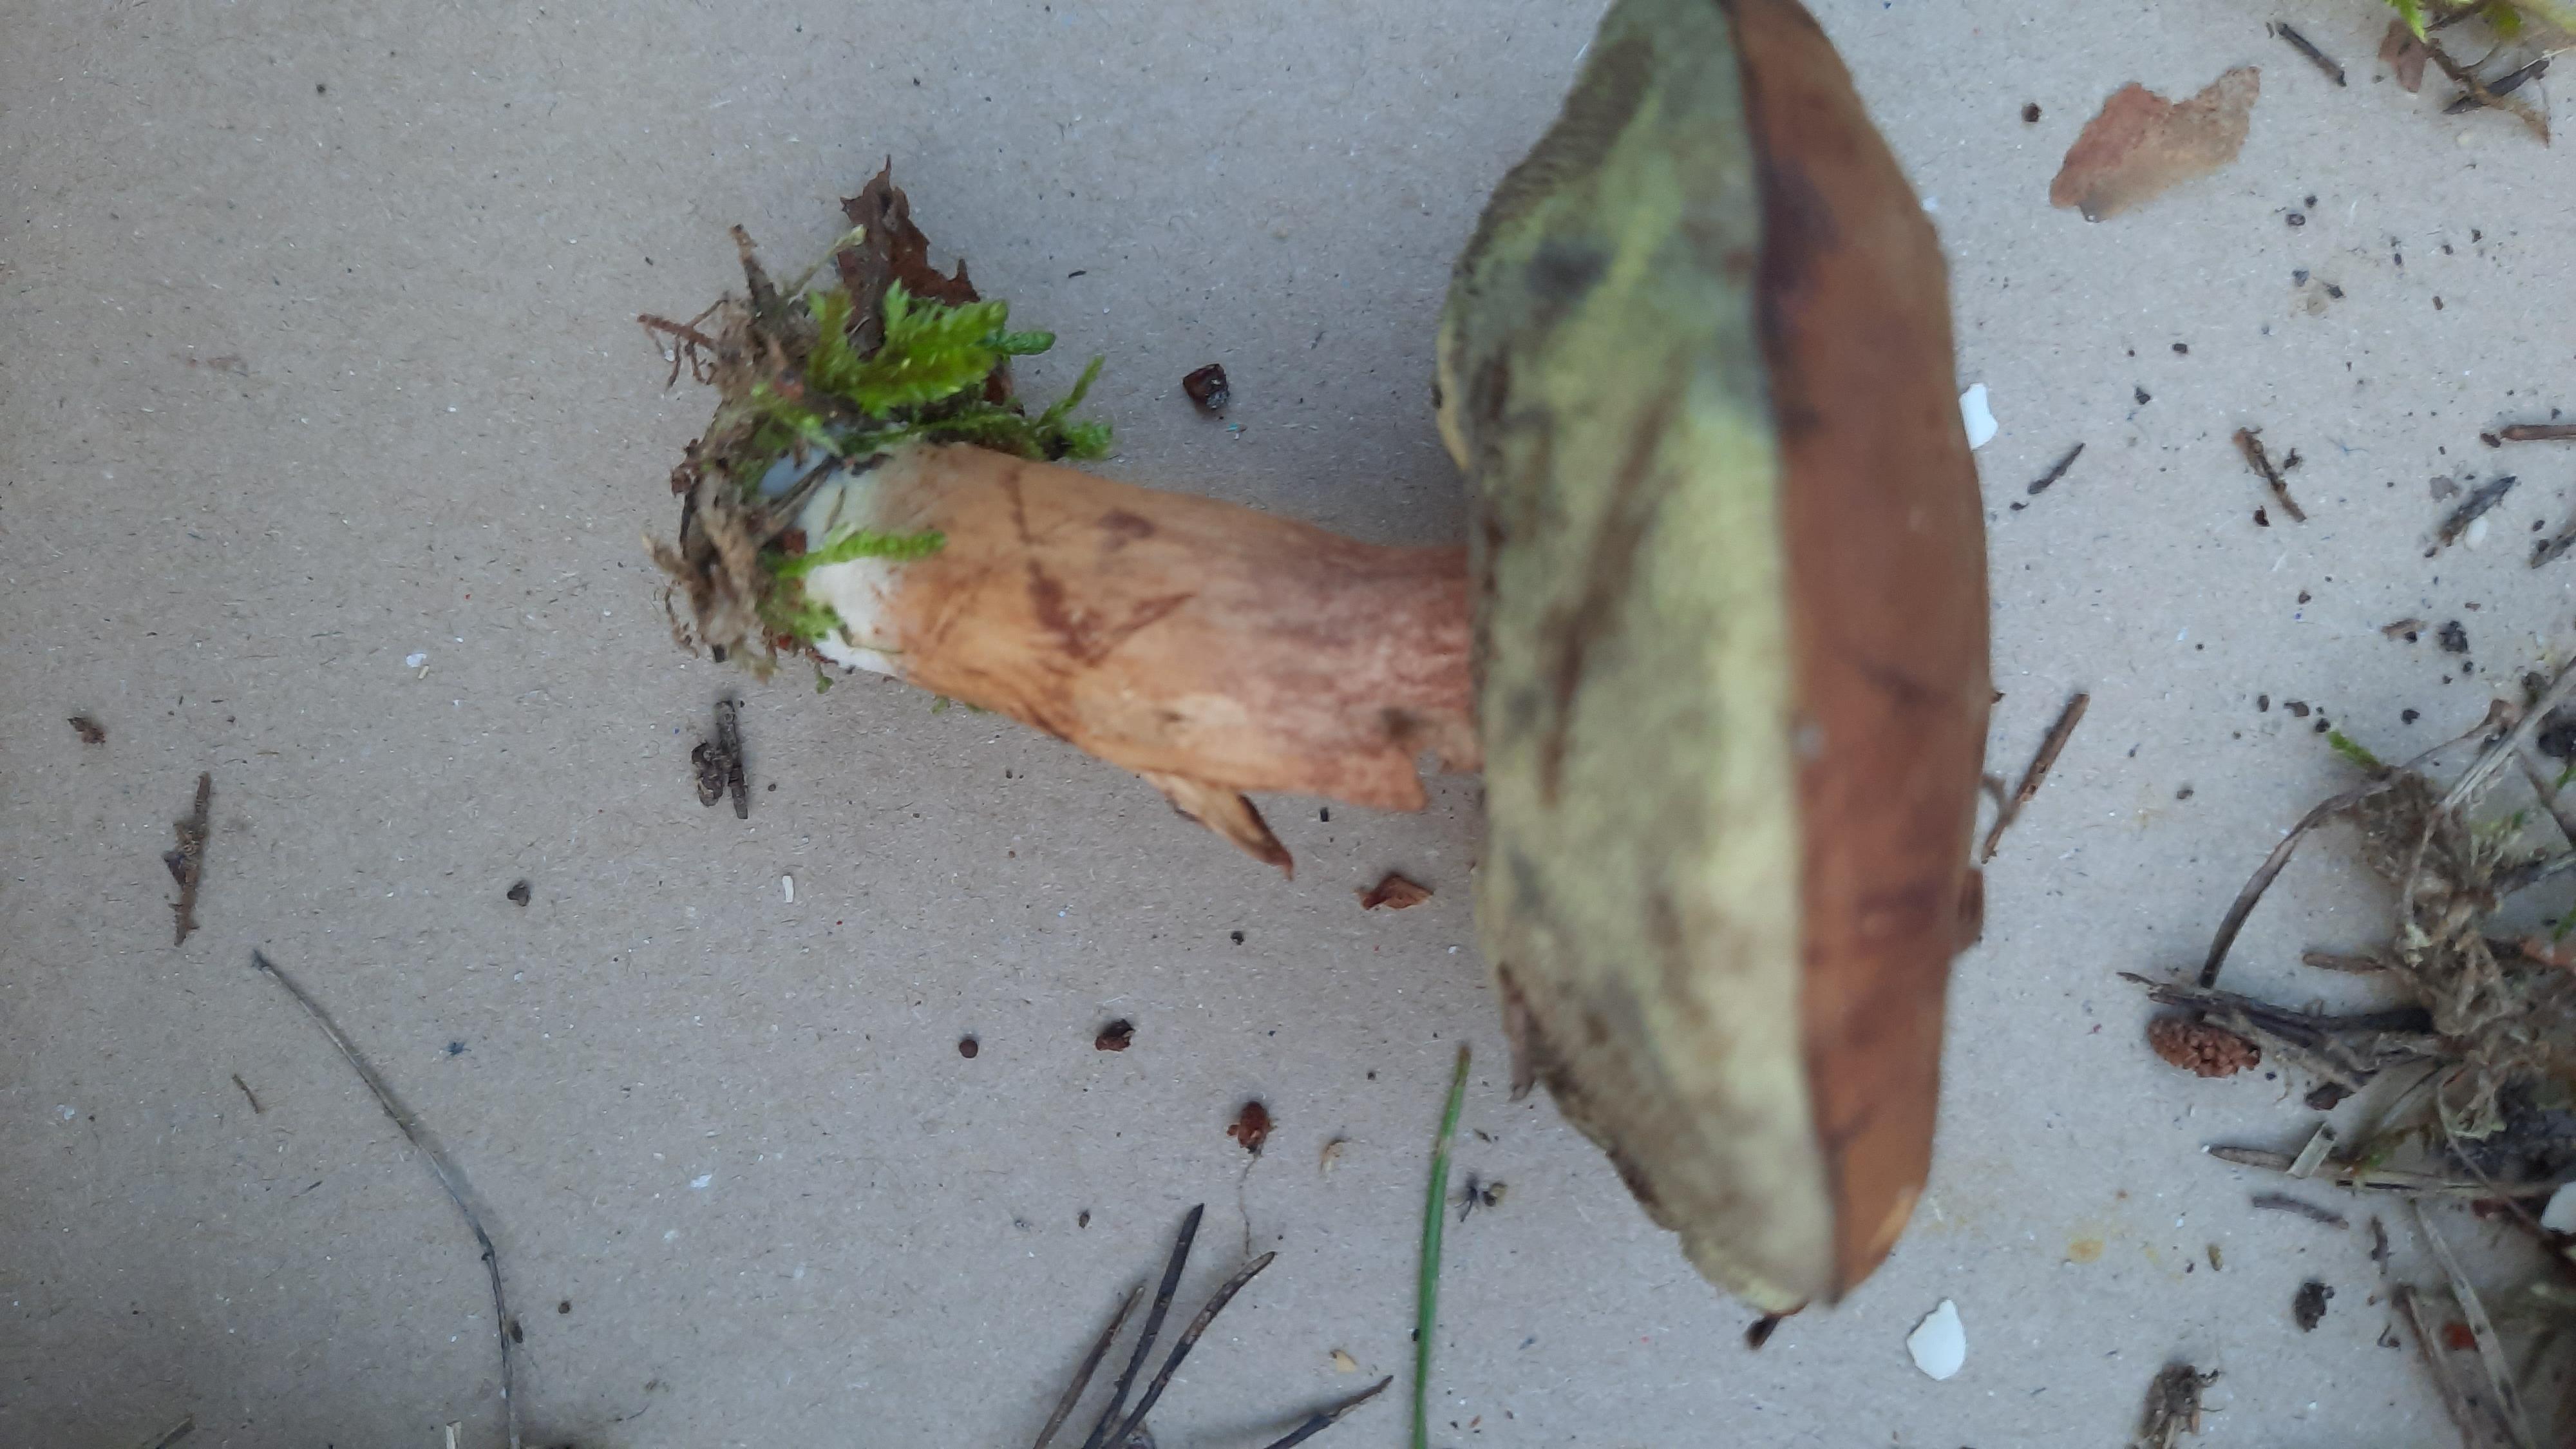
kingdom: Fungi
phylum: Basidiomycota
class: Agaricomycetes
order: Boletales
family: Boletaceae
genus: Imleria
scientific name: Imleria badia
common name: brunstokket rørhat
